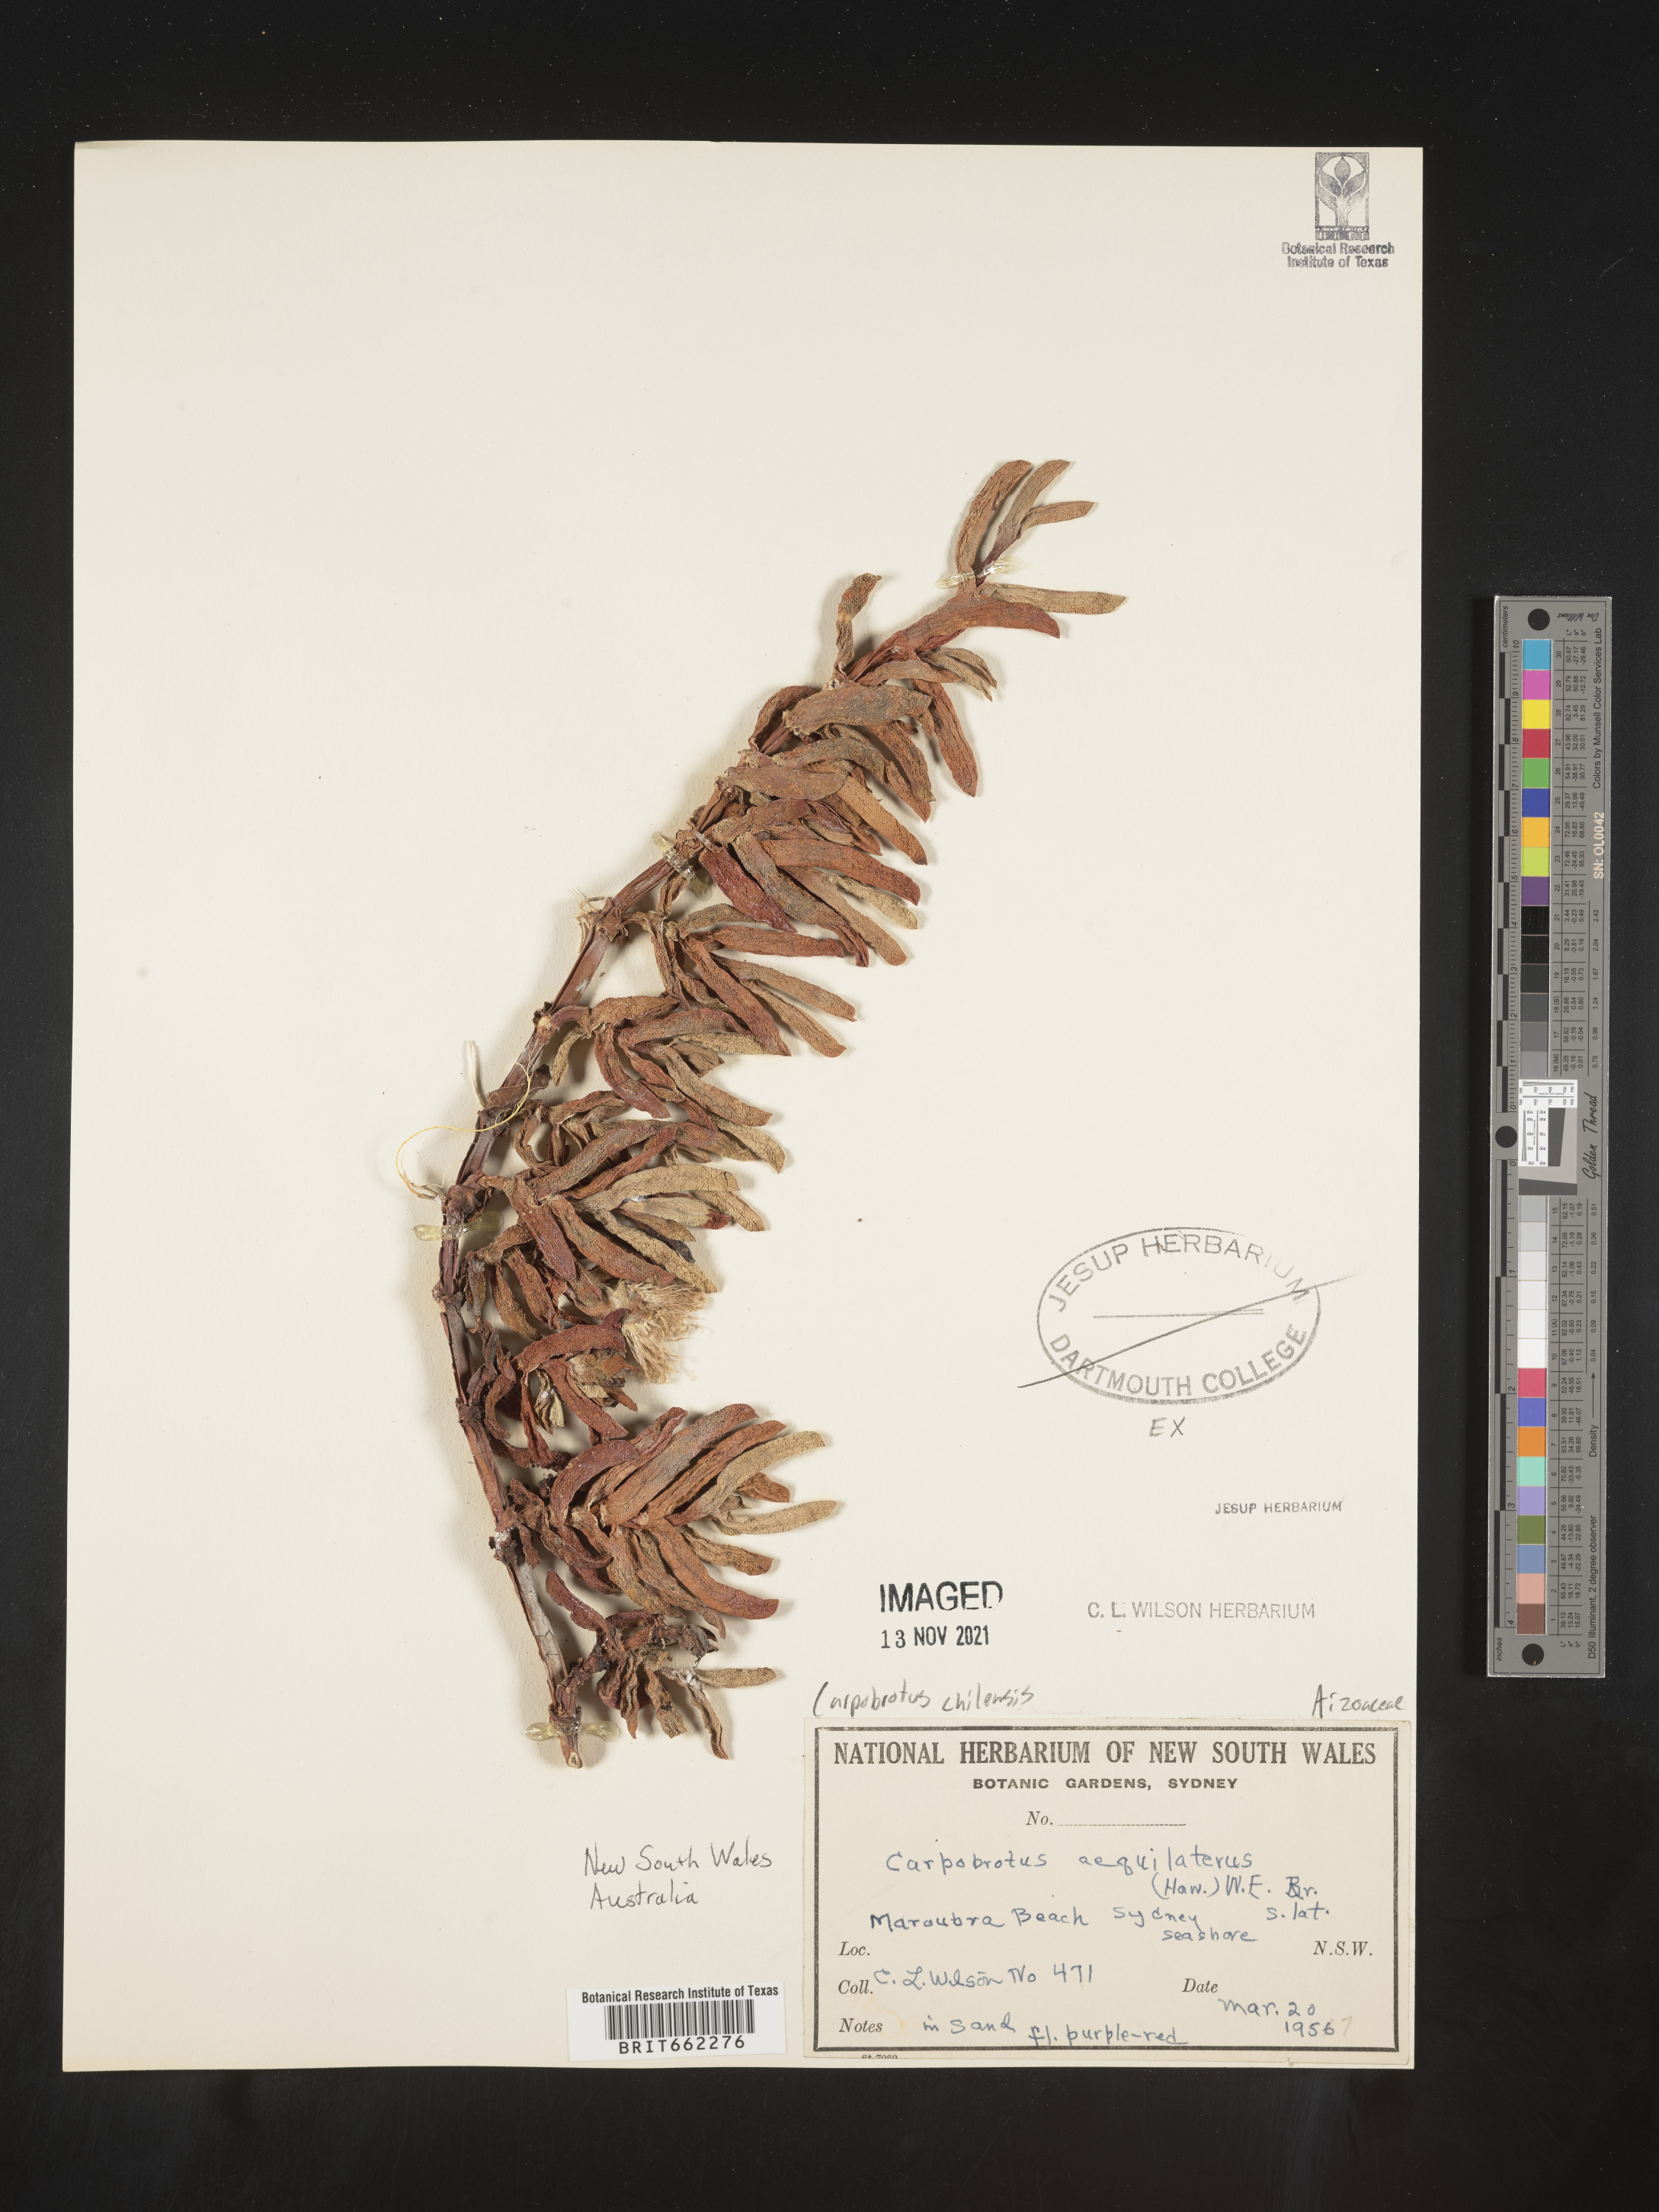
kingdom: Plantae
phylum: Tracheophyta
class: Magnoliopsida
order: Caryophyllales
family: Aizoaceae
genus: Carpobrotus
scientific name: Carpobrotus
